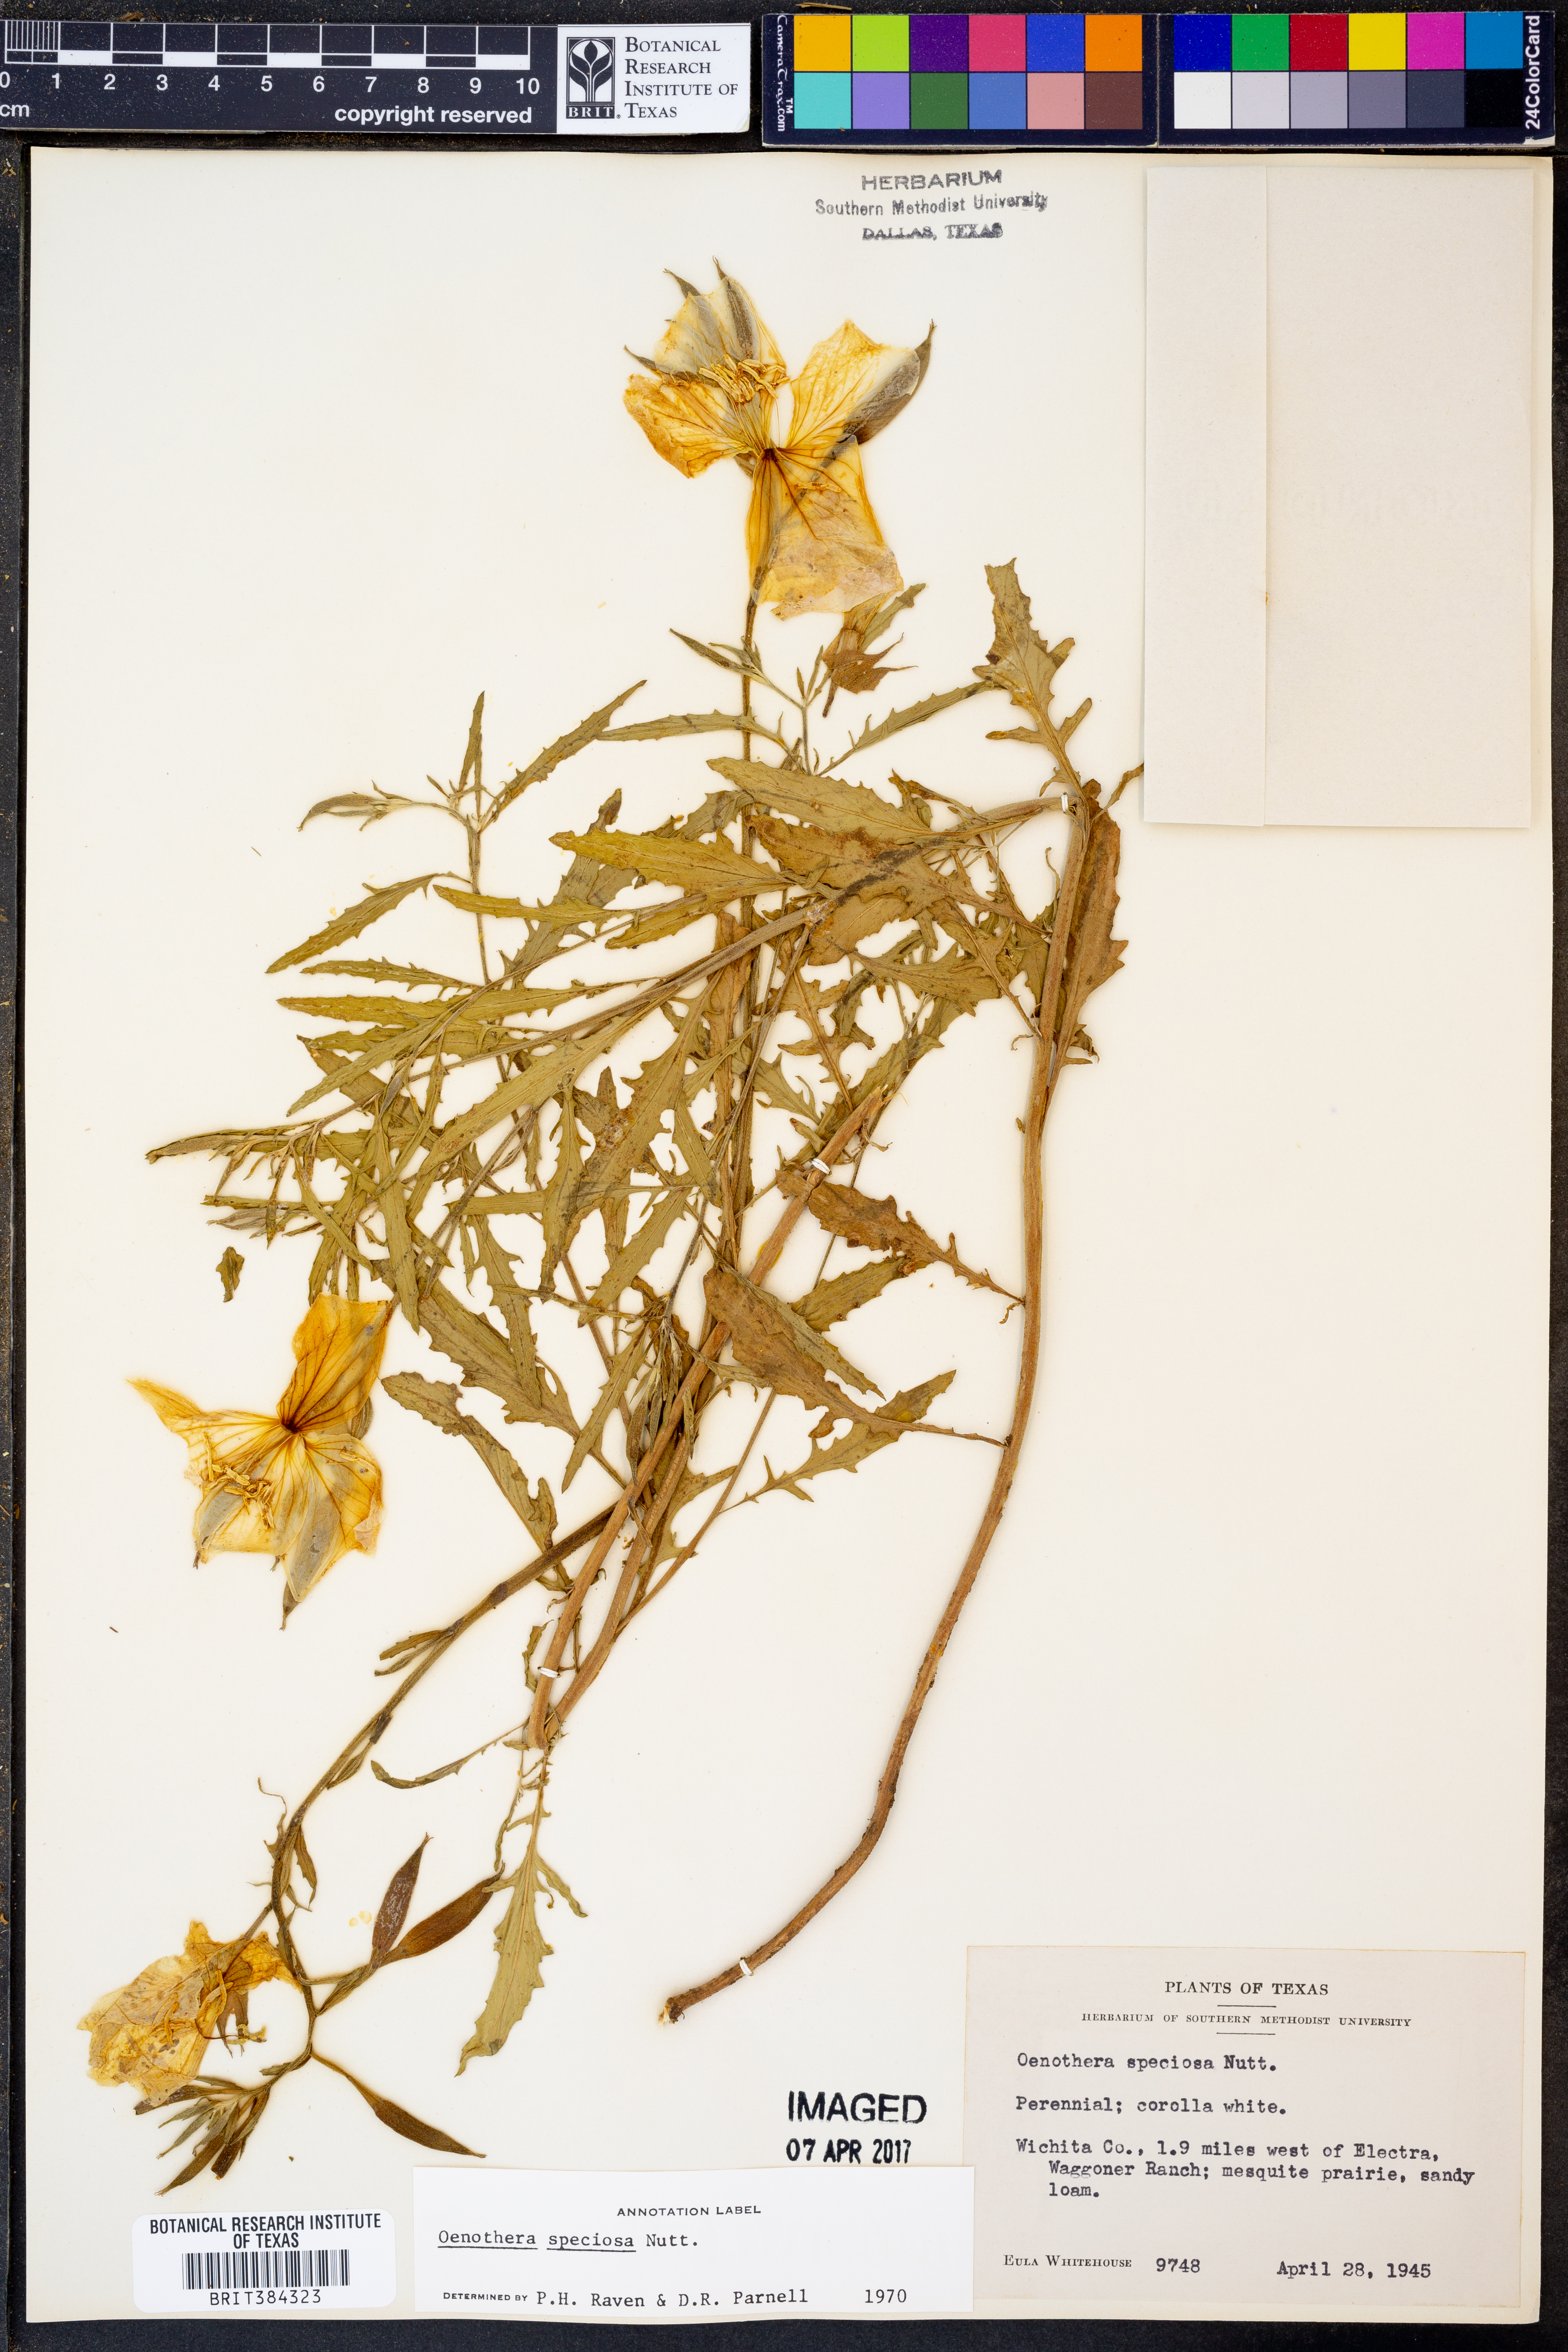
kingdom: Plantae
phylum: Tracheophyta
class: Magnoliopsida
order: Myrtales
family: Onagraceae
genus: Oenothera
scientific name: Oenothera speciosa
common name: White evening-primrose
